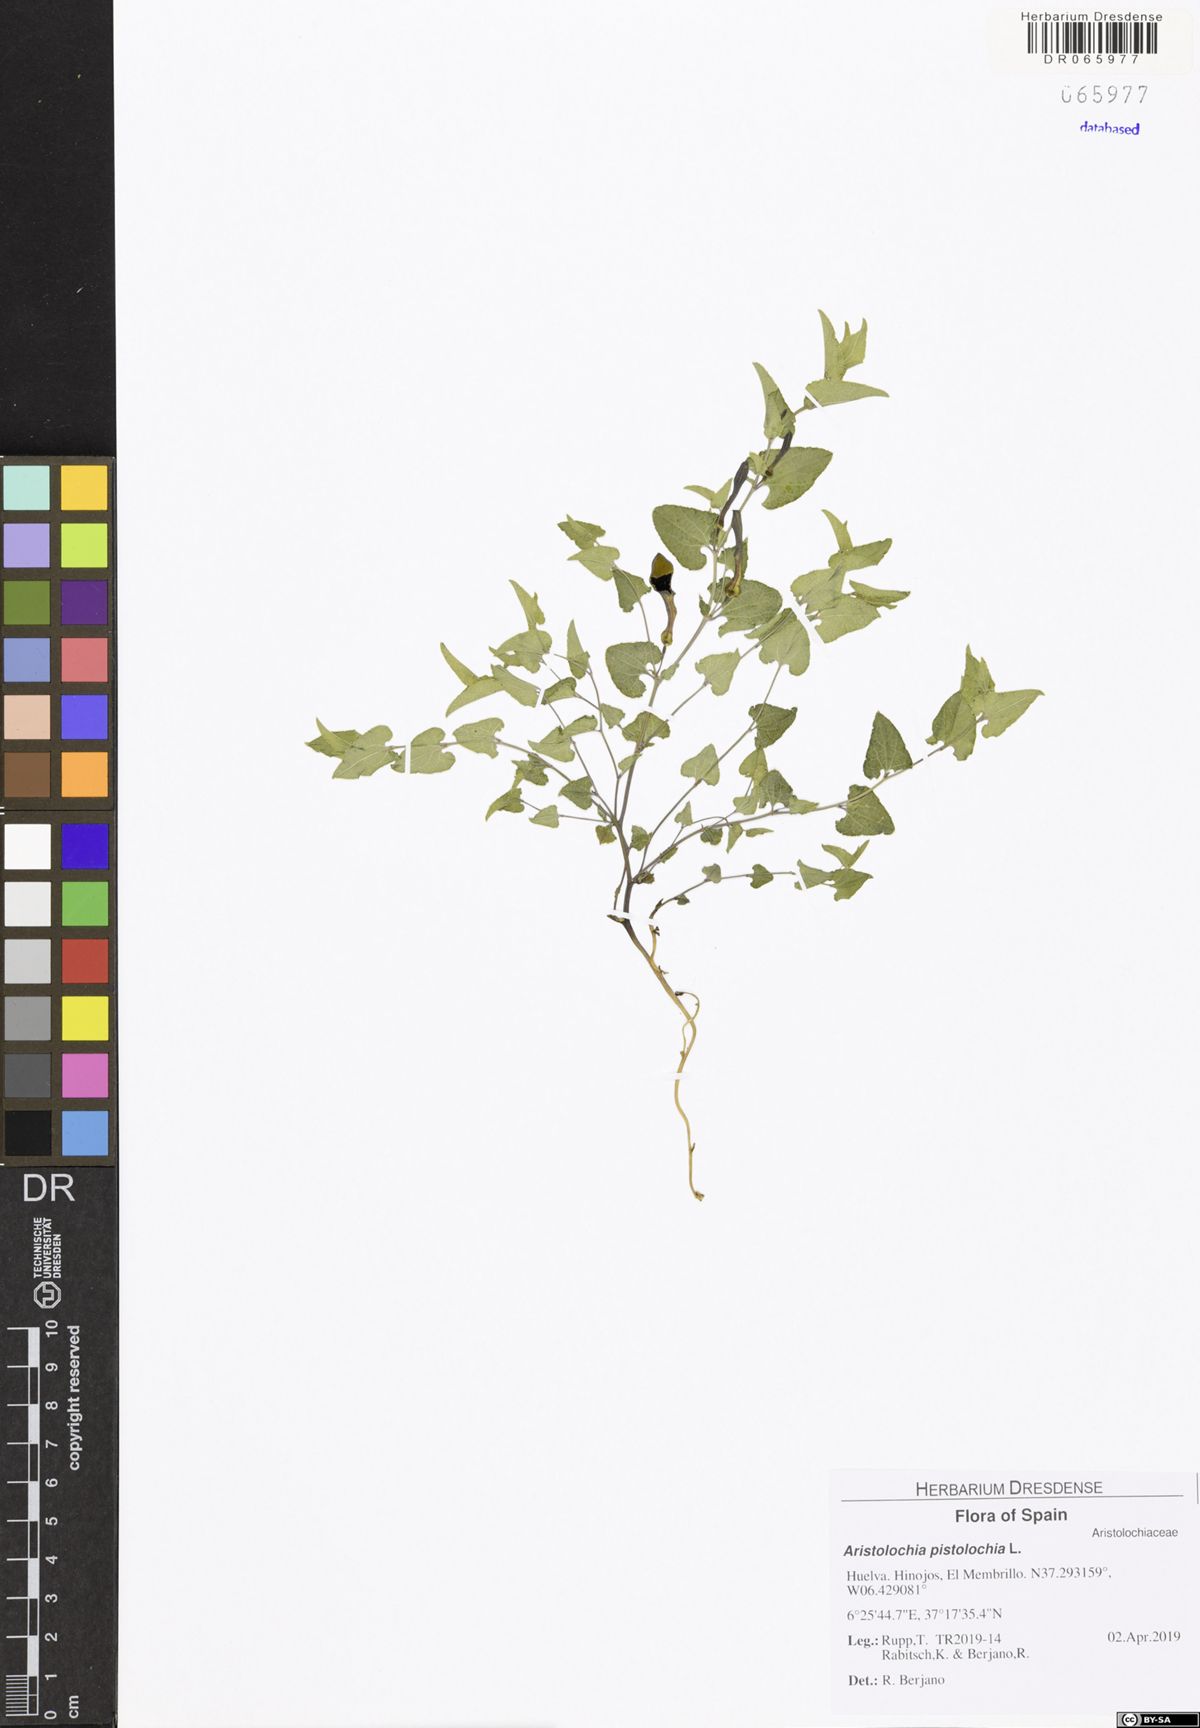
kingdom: Plantae
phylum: Tracheophyta
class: Magnoliopsida
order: Piperales
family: Aristolochiaceae
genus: Aristolochia
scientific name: Aristolochia pistolochia
